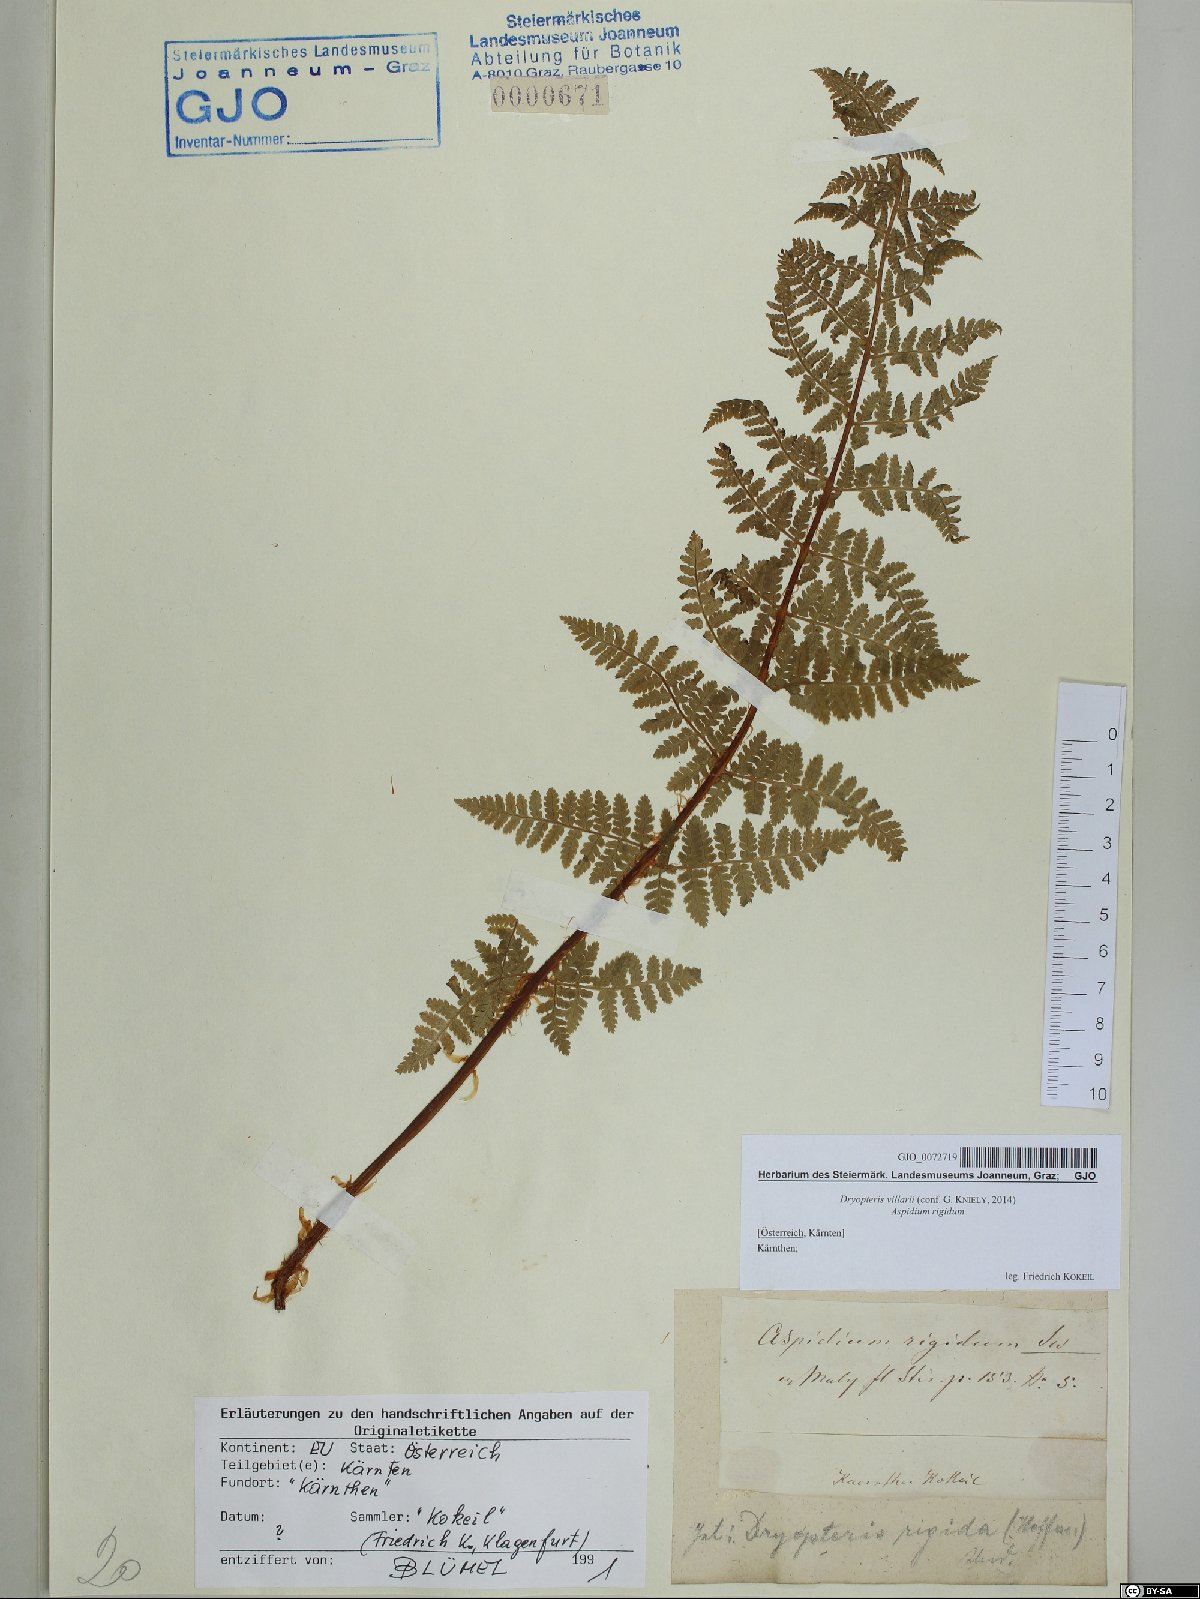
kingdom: Plantae
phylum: Tracheophyta
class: Polypodiopsida
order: Polypodiales
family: Dryopteridaceae
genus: Dryopteris
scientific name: Dryopteris villarii
